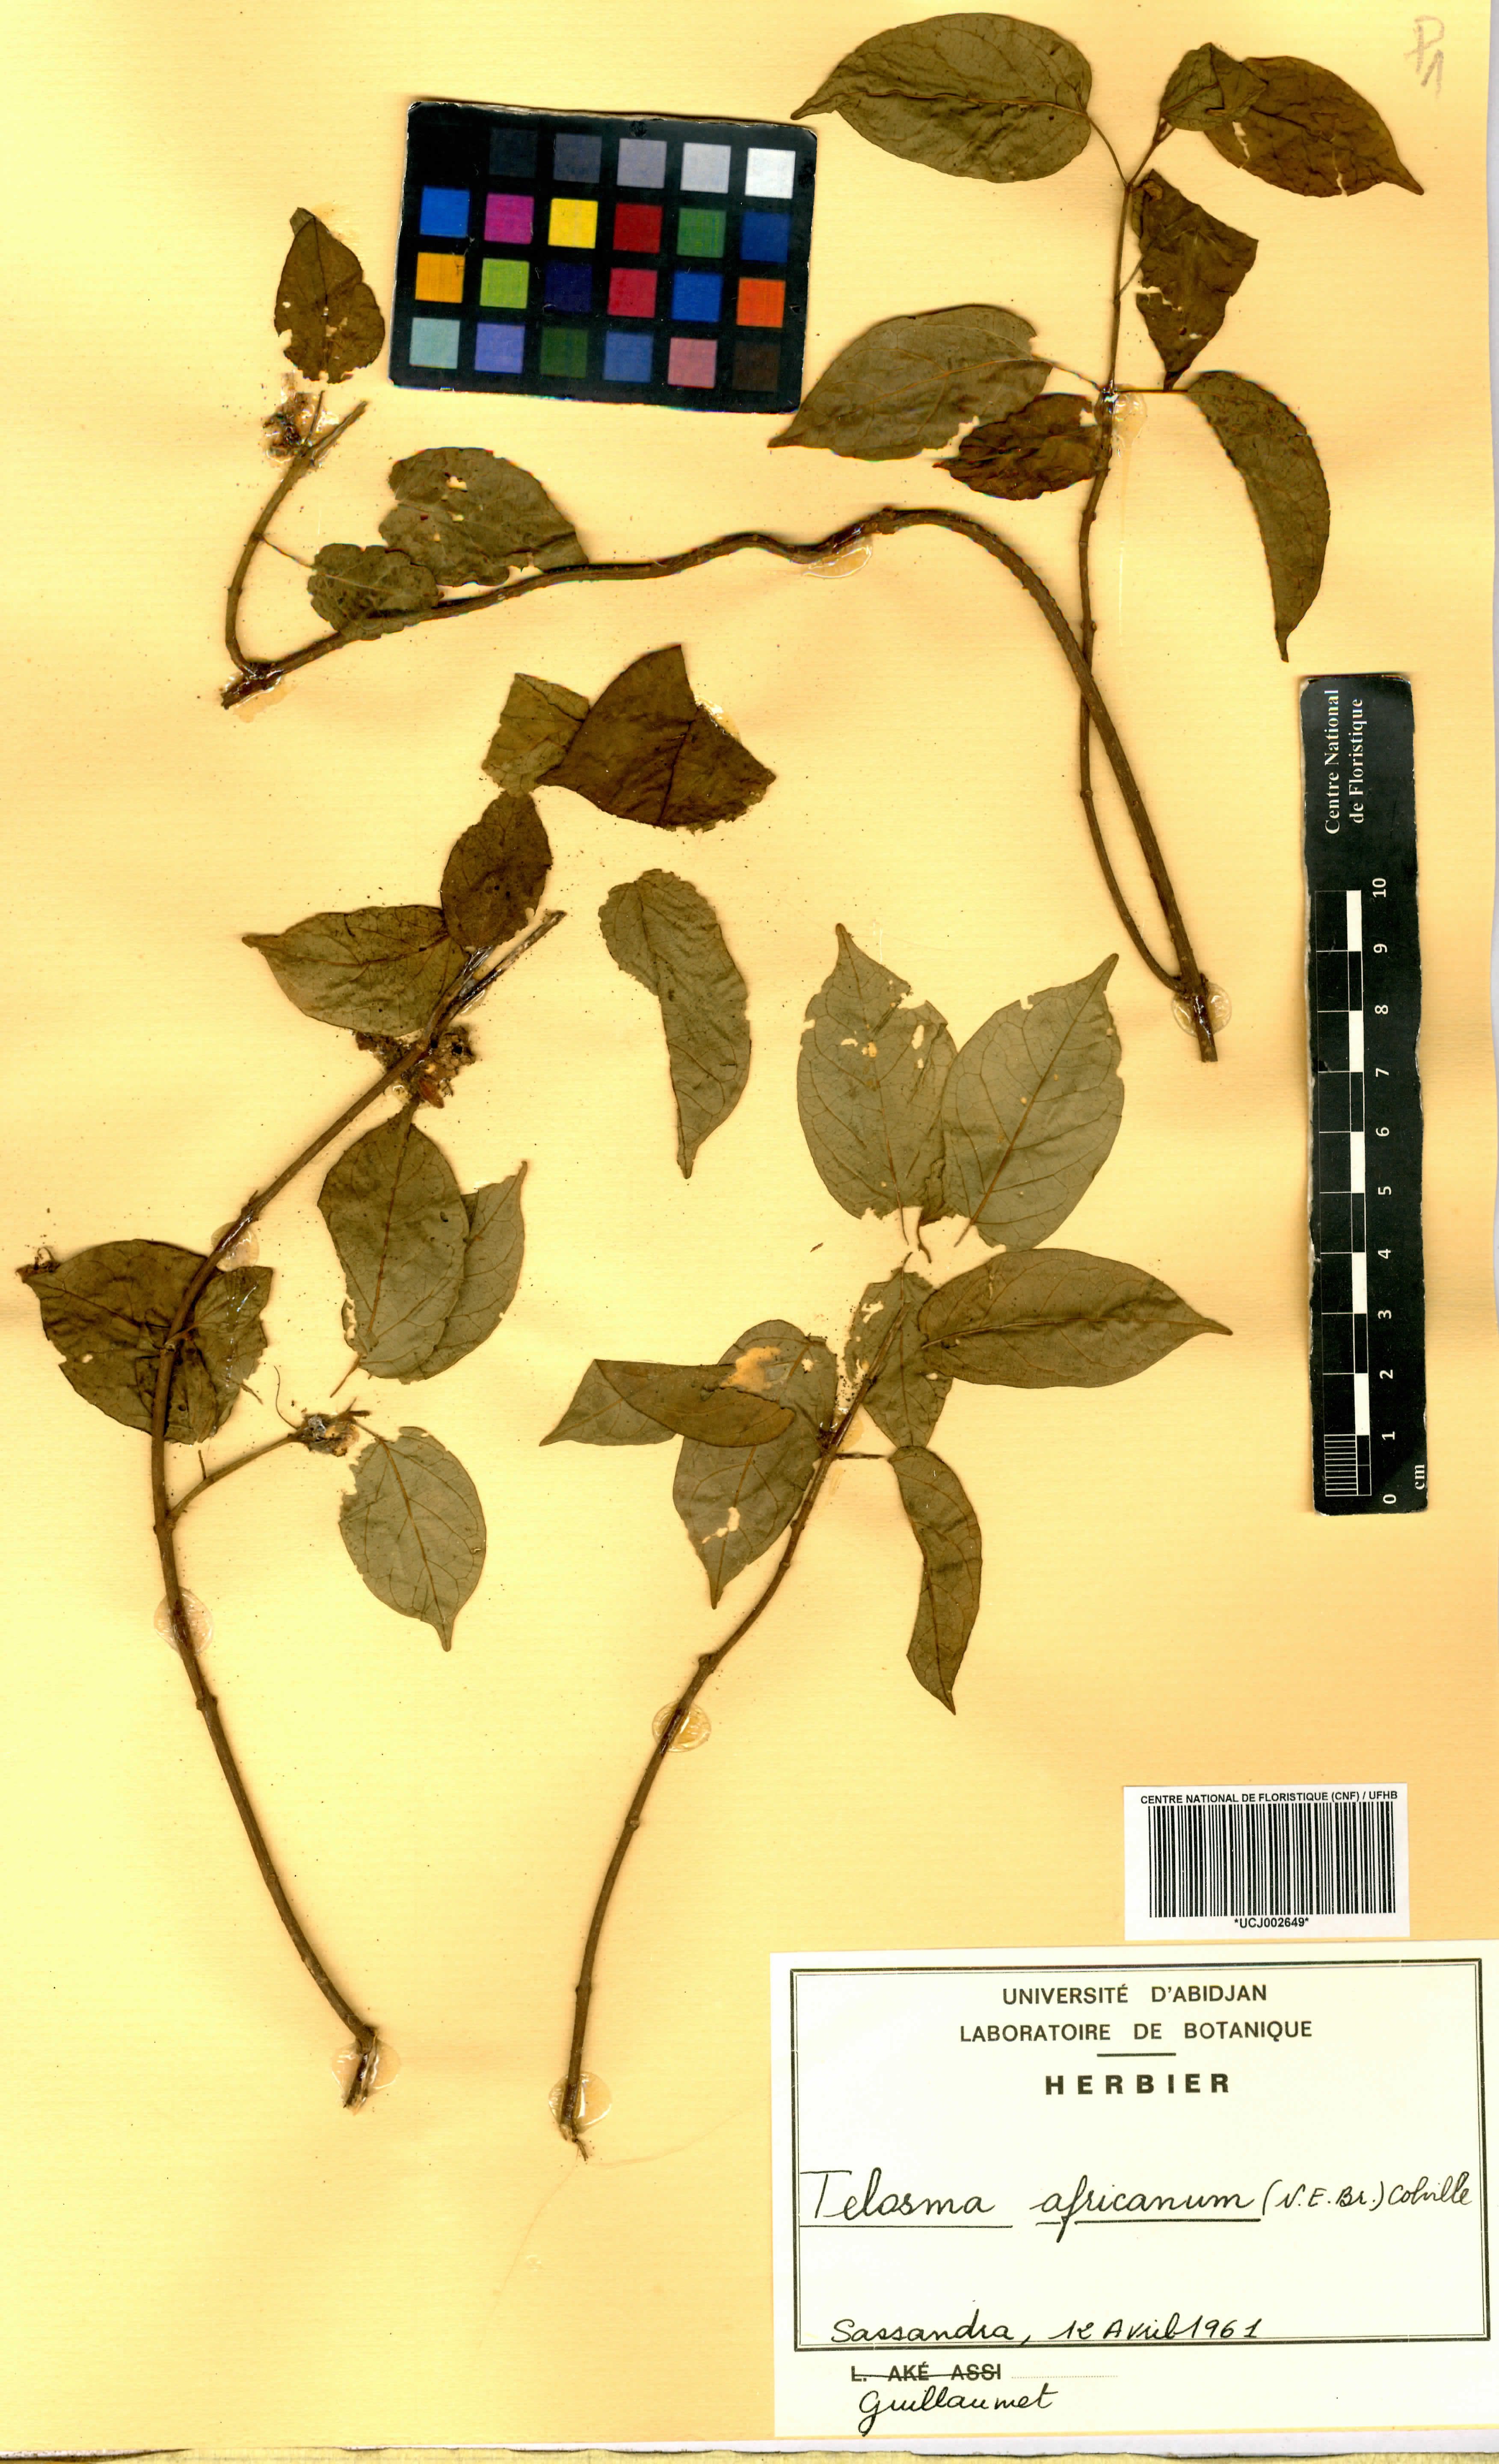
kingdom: Plantae
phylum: Tracheophyta
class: Magnoliopsida
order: Gentianales
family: Apocynaceae
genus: Telosma
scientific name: Telosma africana
